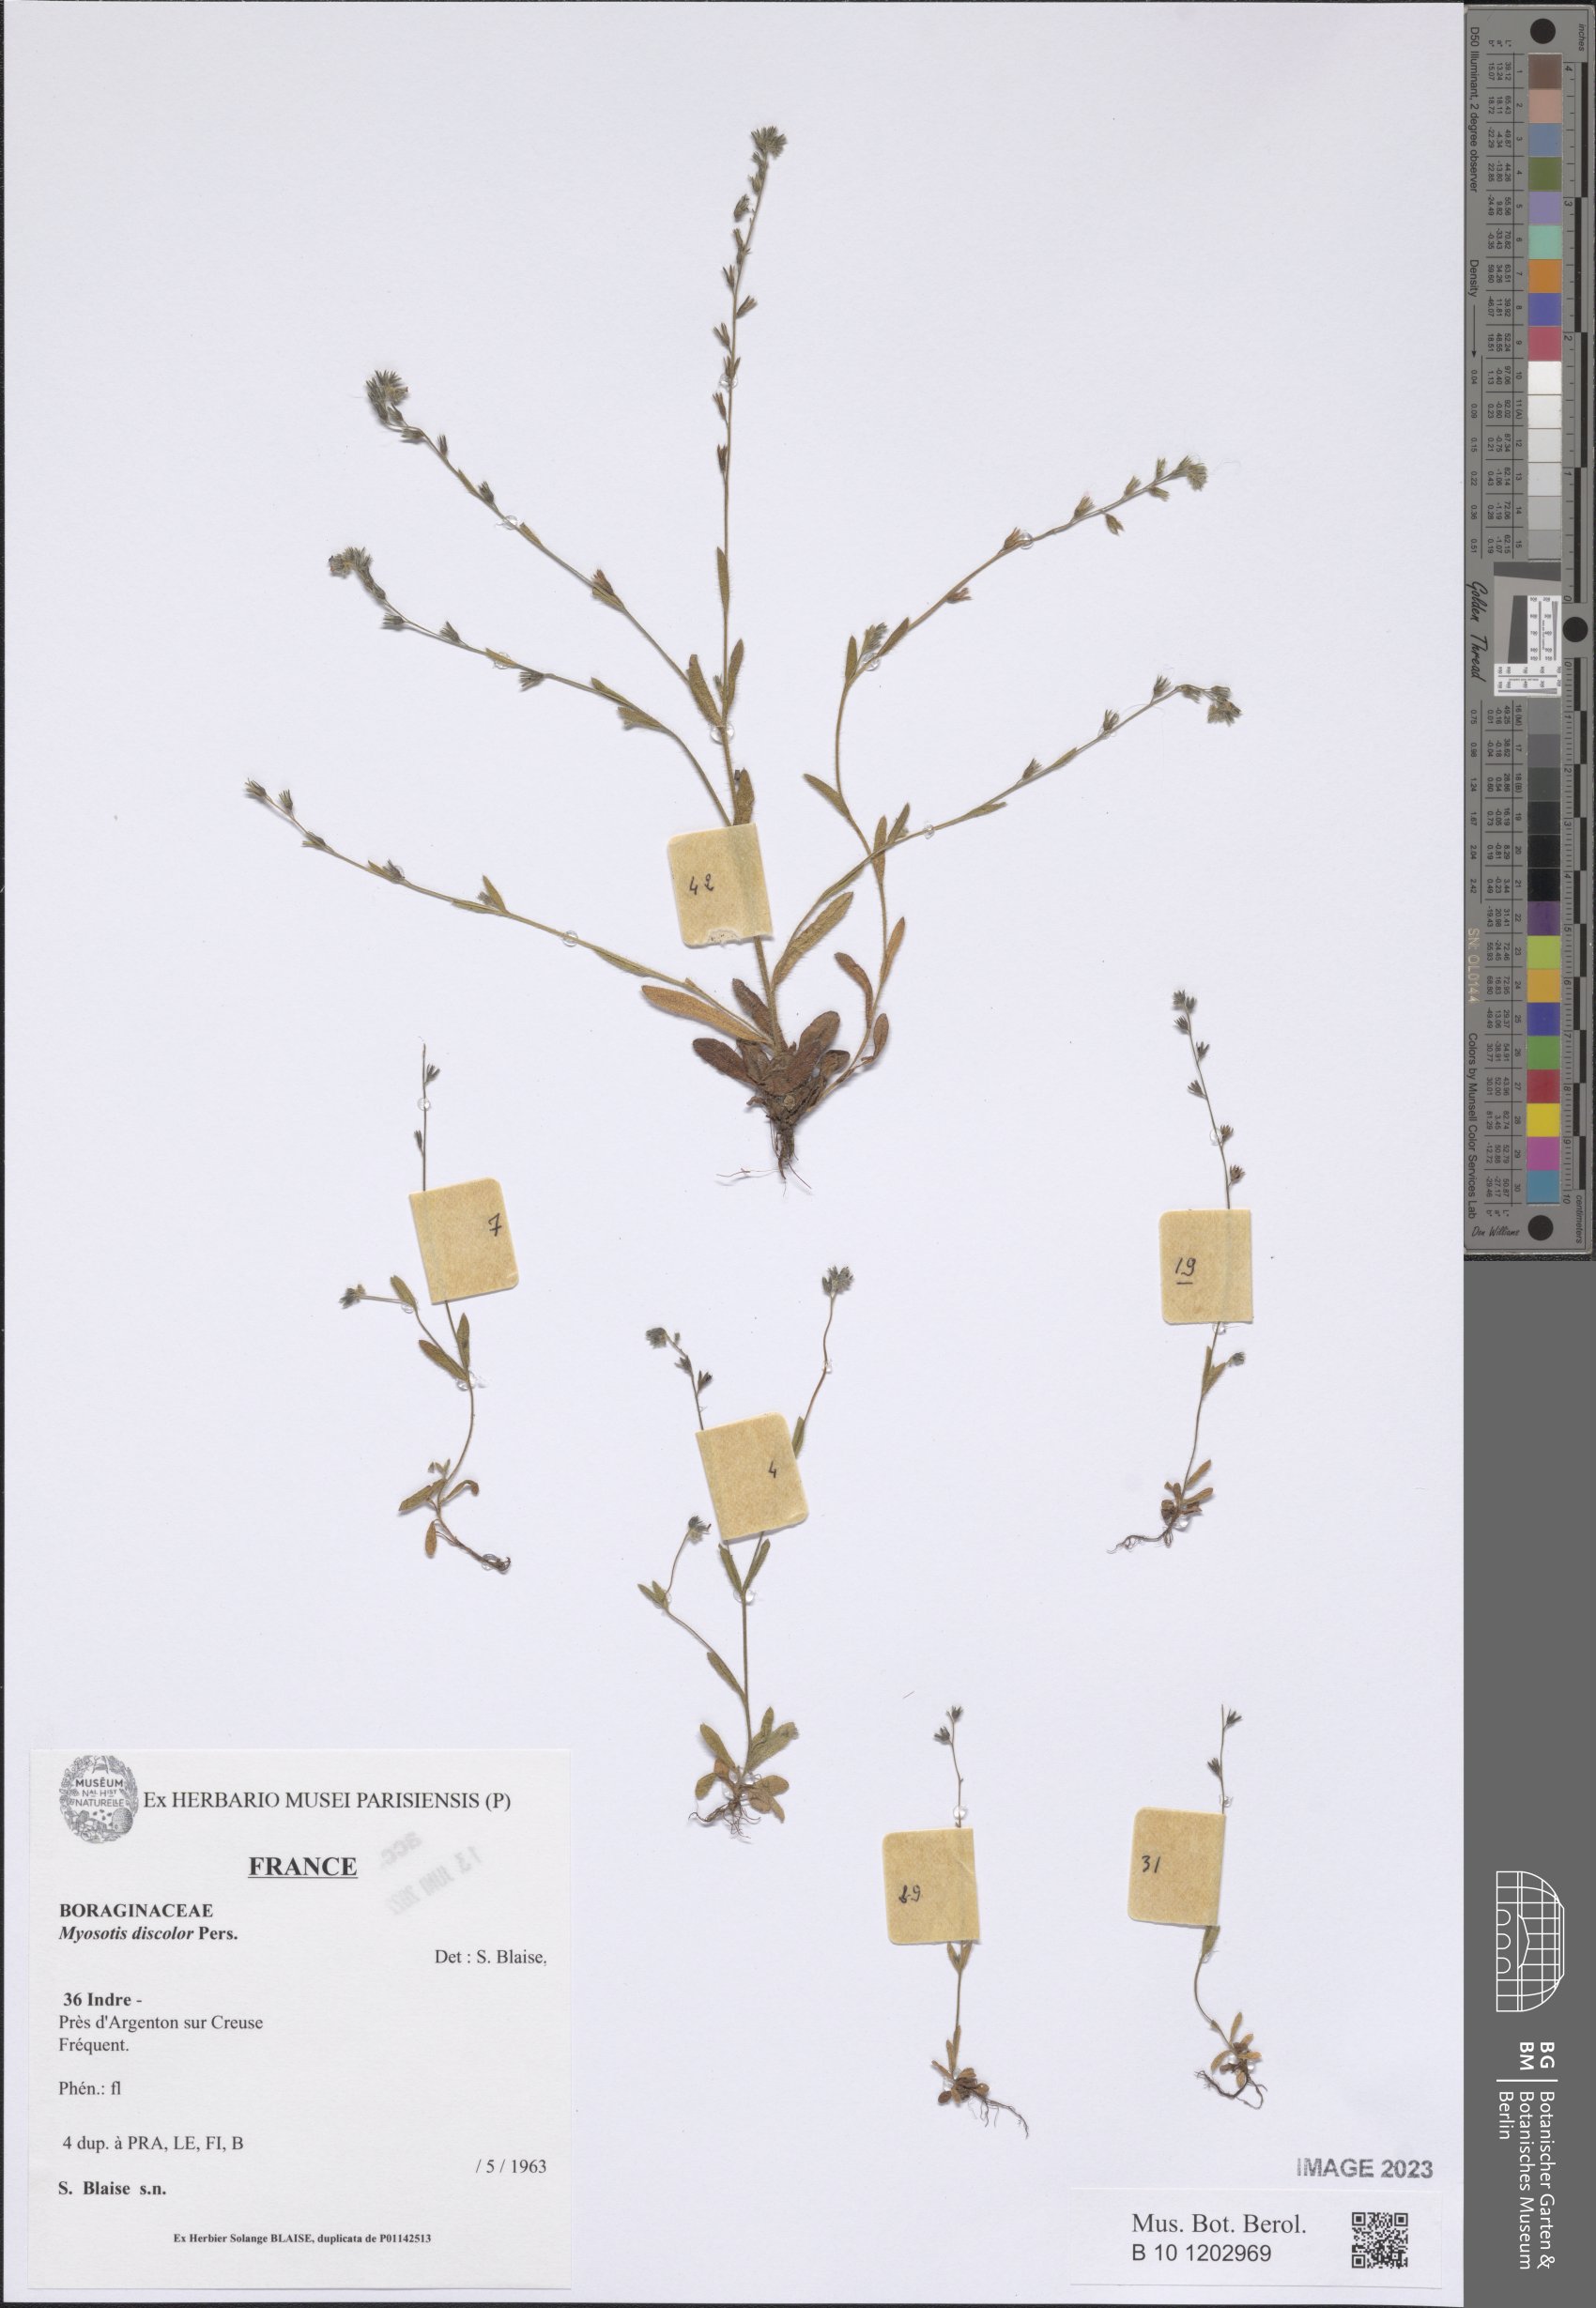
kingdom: Plantae
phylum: Tracheophyta
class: Magnoliopsida
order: Boraginales
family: Boraginaceae
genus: Myosotis
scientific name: Myosotis discolor
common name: Changing forget-me-not
